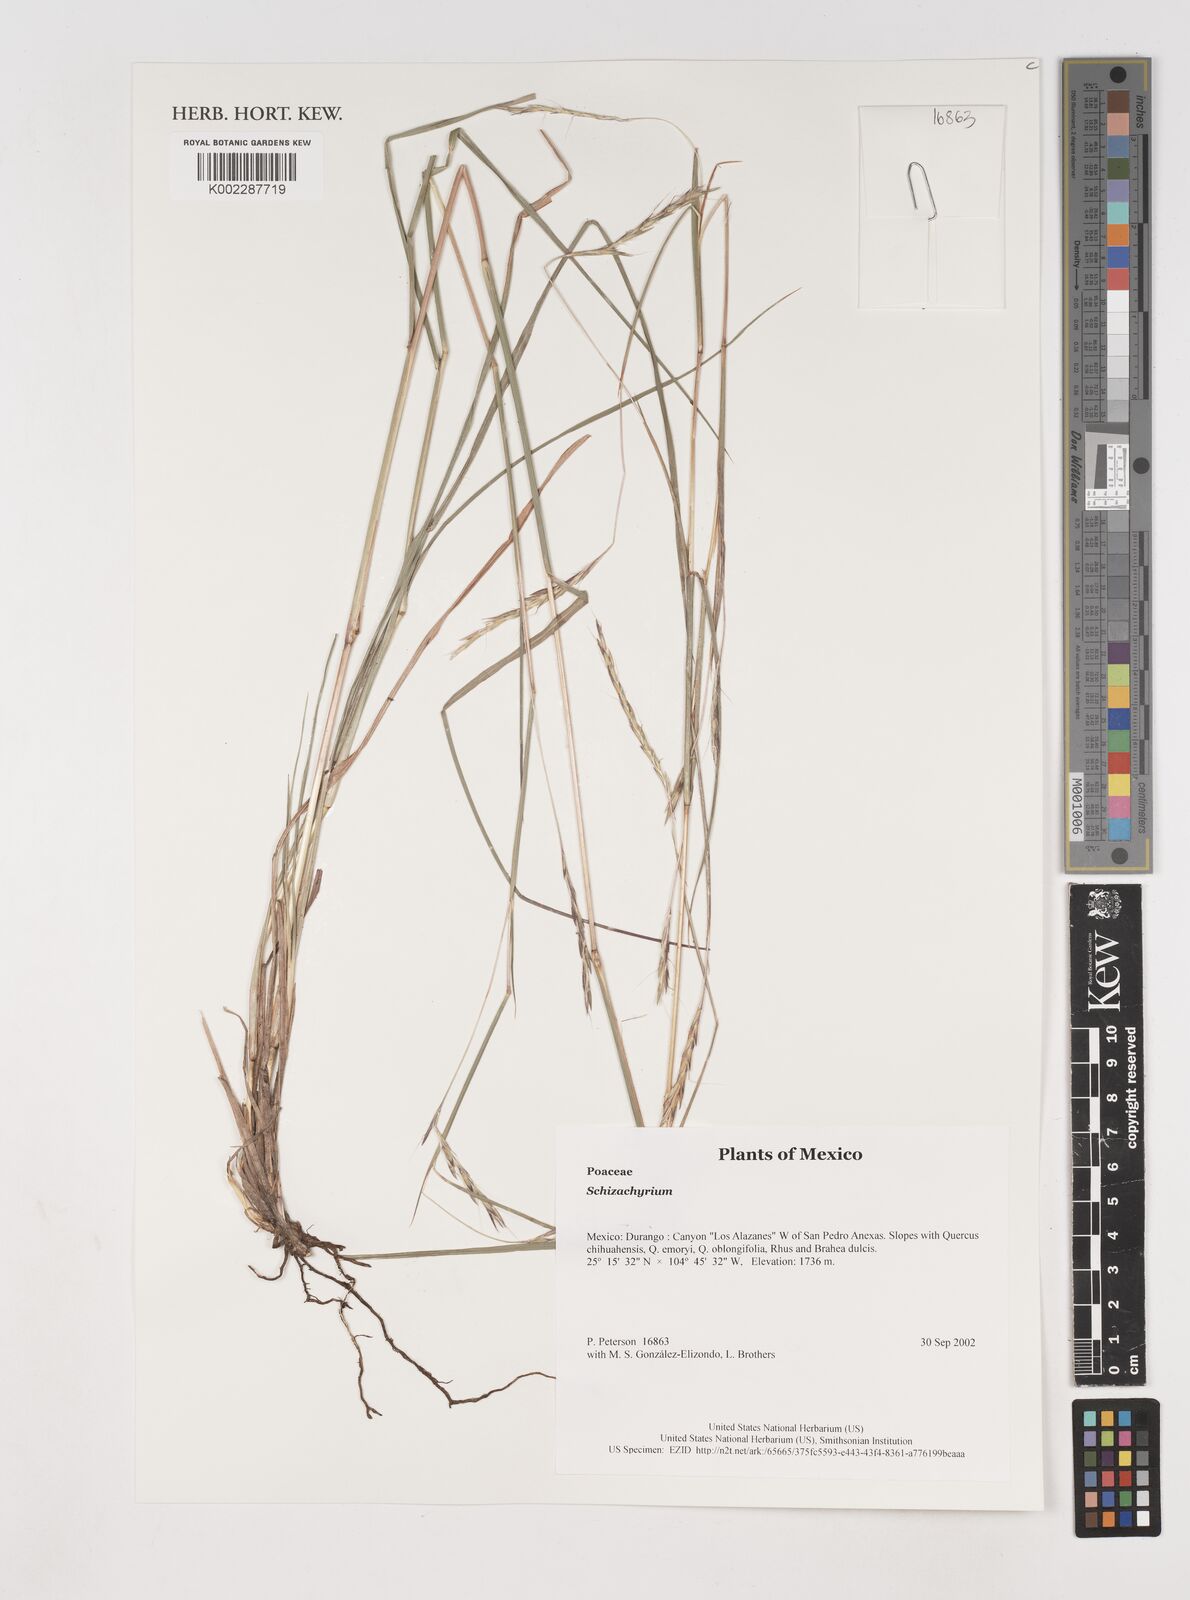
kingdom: Plantae
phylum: Tracheophyta
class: Liliopsida
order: Poales
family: Poaceae
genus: Schizachyrium
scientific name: Schizachyrium
